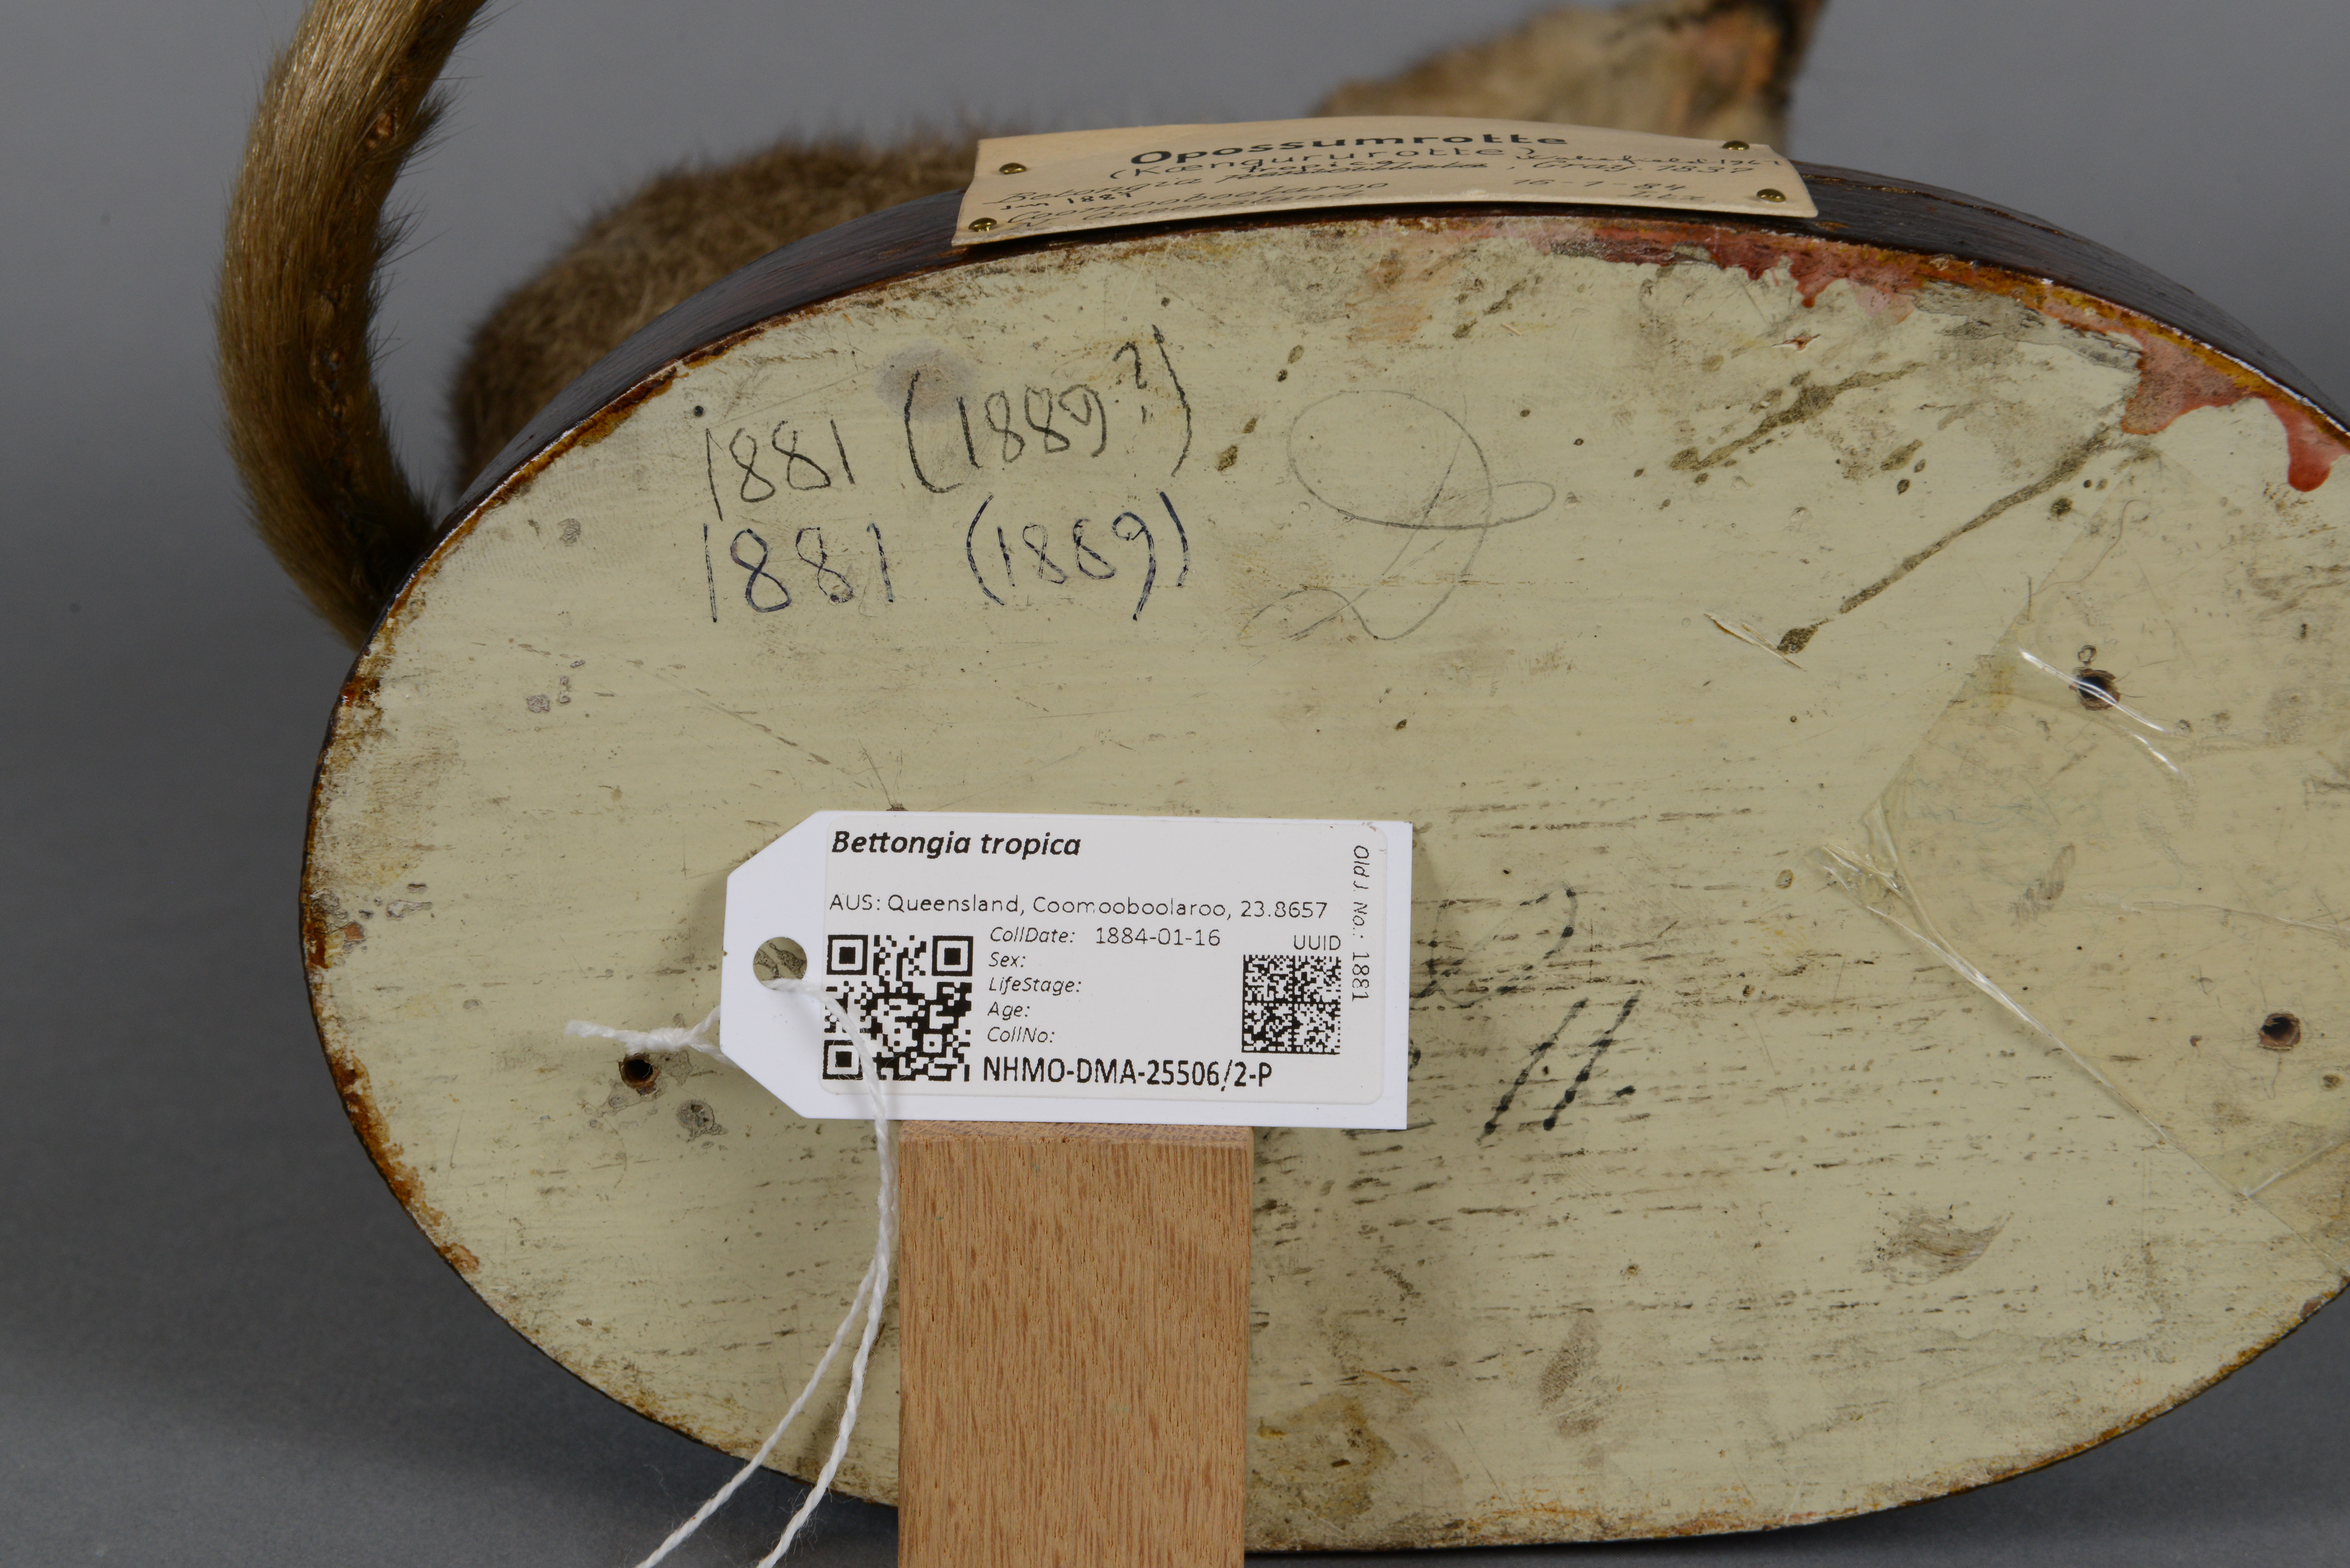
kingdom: Animalia
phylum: Chordata
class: Mammalia
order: Diprotodontia
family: Potoroidae
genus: Bettongia
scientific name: Bettongia tropica
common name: Northern bettong
